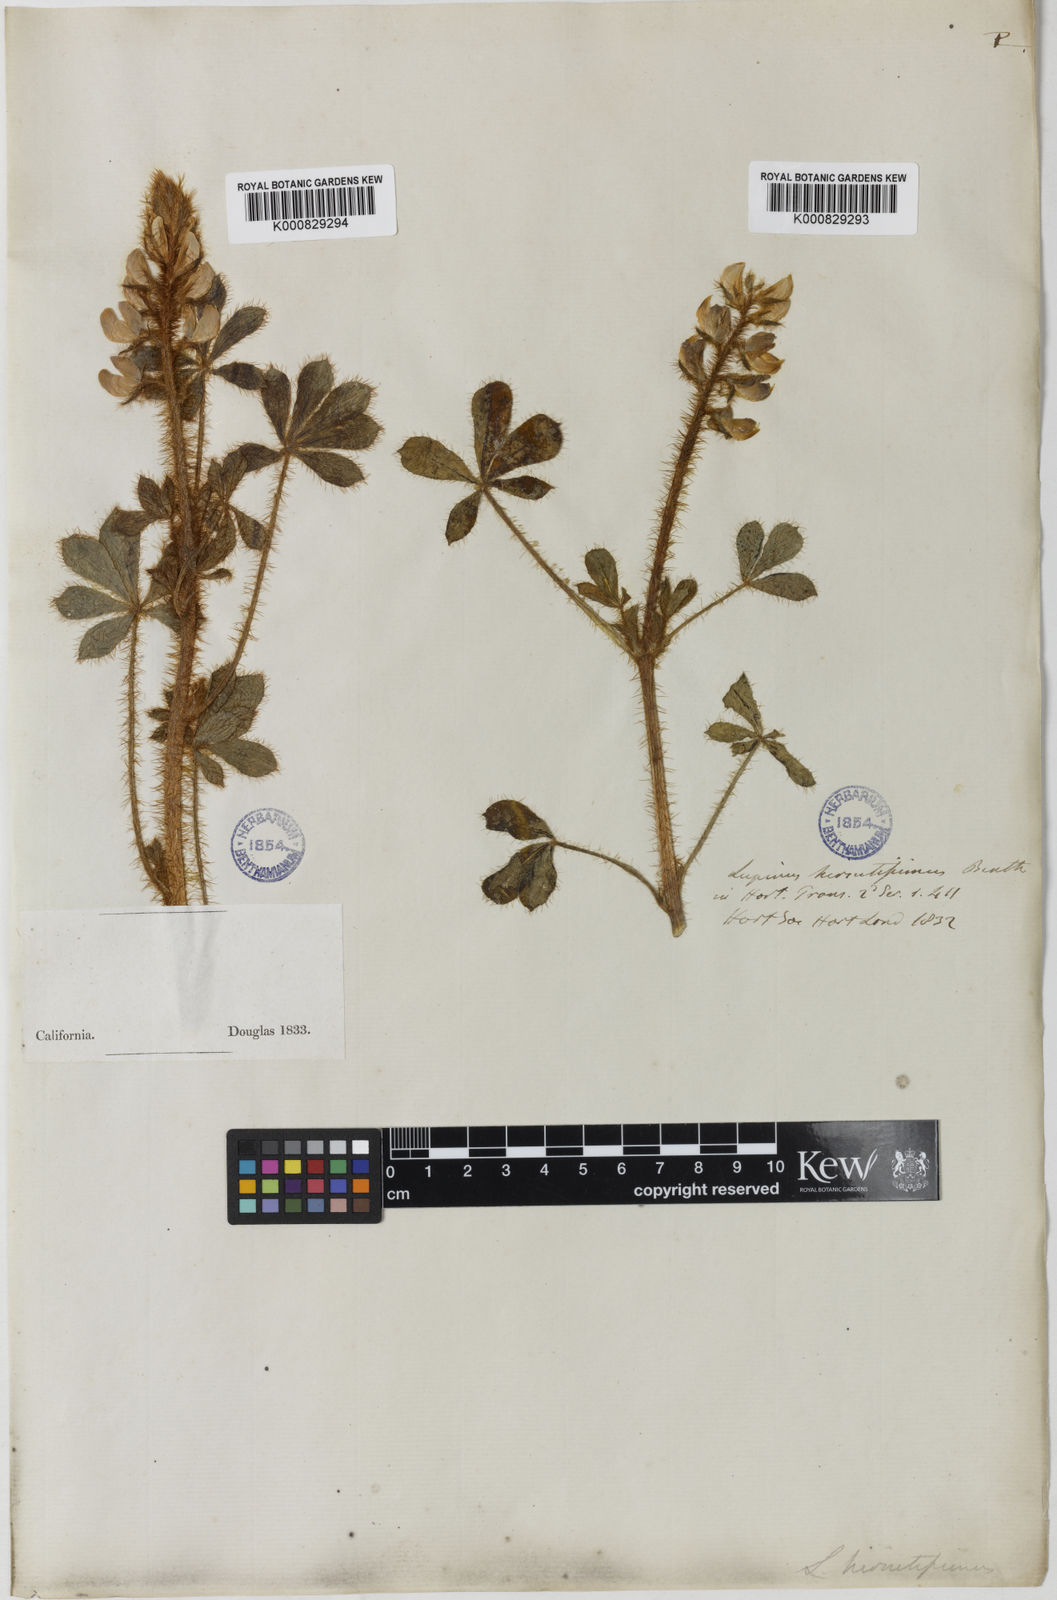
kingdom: Plantae
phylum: Tracheophyta
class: Magnoliopsida
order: Fabales
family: Fabaceae
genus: Lupinus
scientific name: Lupinus hirsutissimus
